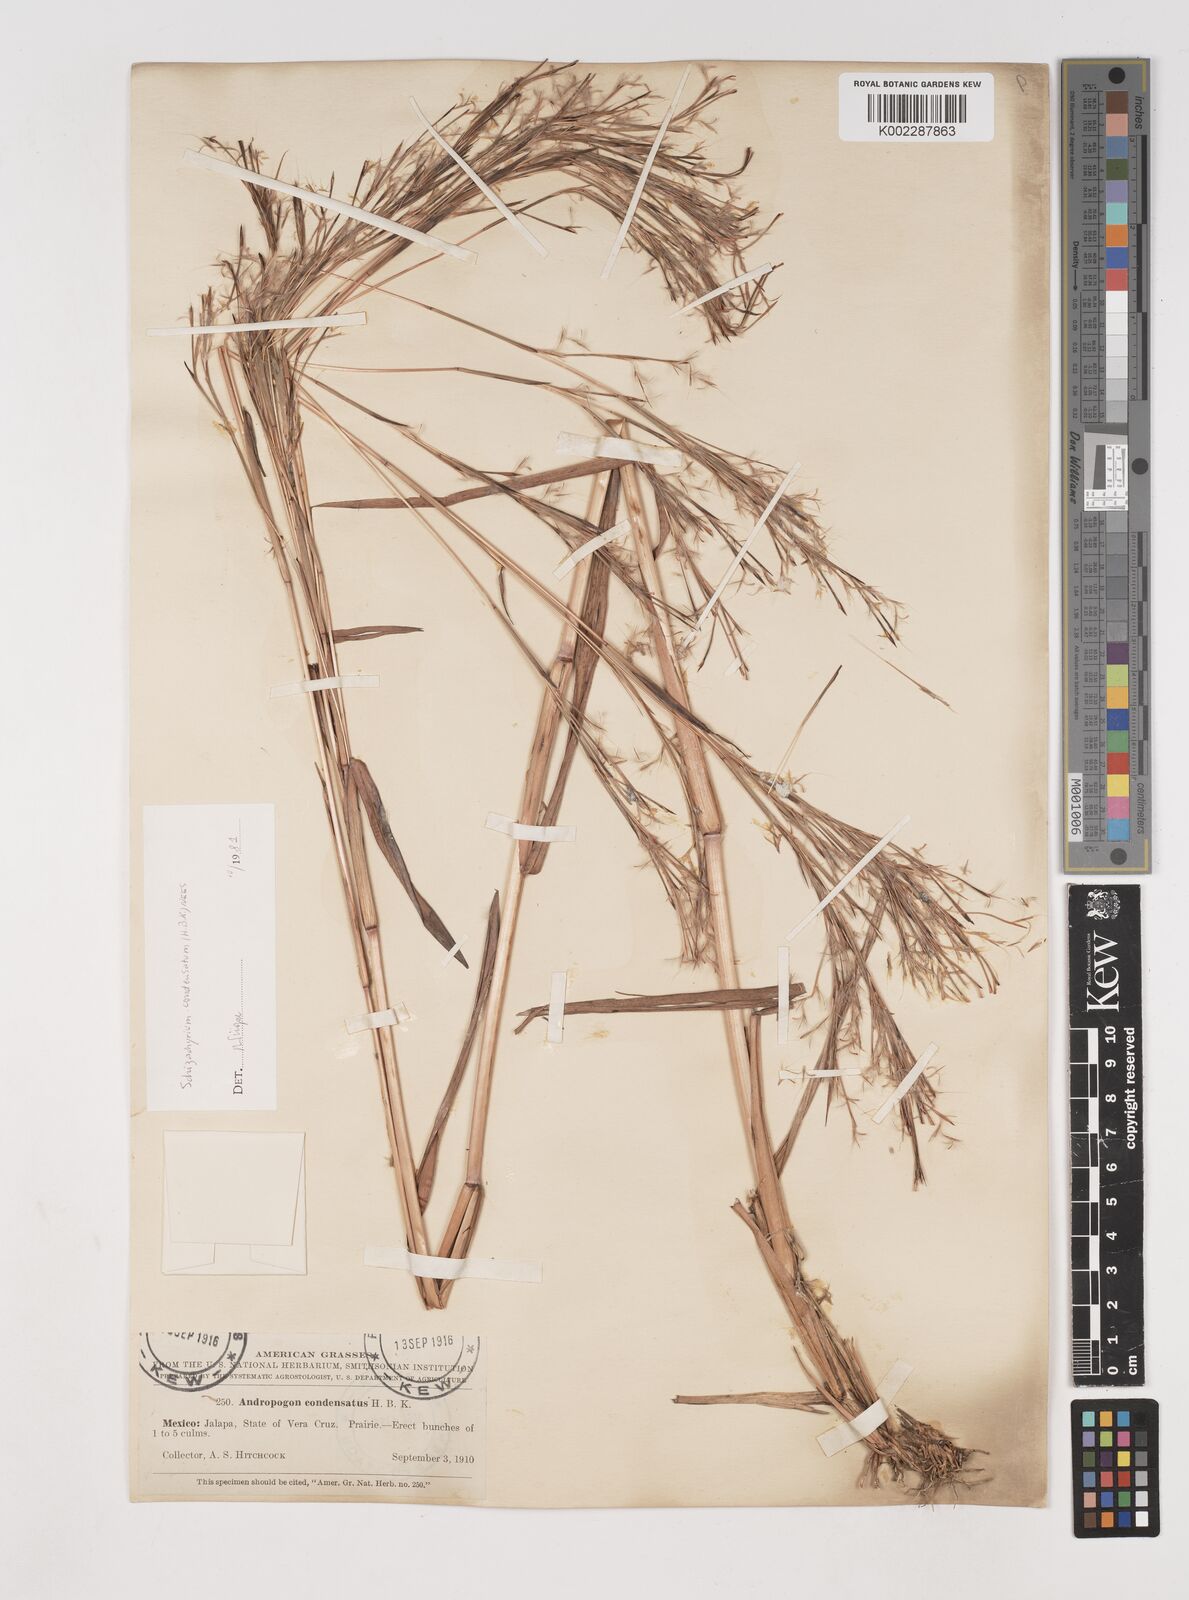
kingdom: Plantae
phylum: Tracheophyta
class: Liliopsida
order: Poales
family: Poaceae
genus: Schizachyrium
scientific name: Schizachyrium condensatum
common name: Bush beardgrass
